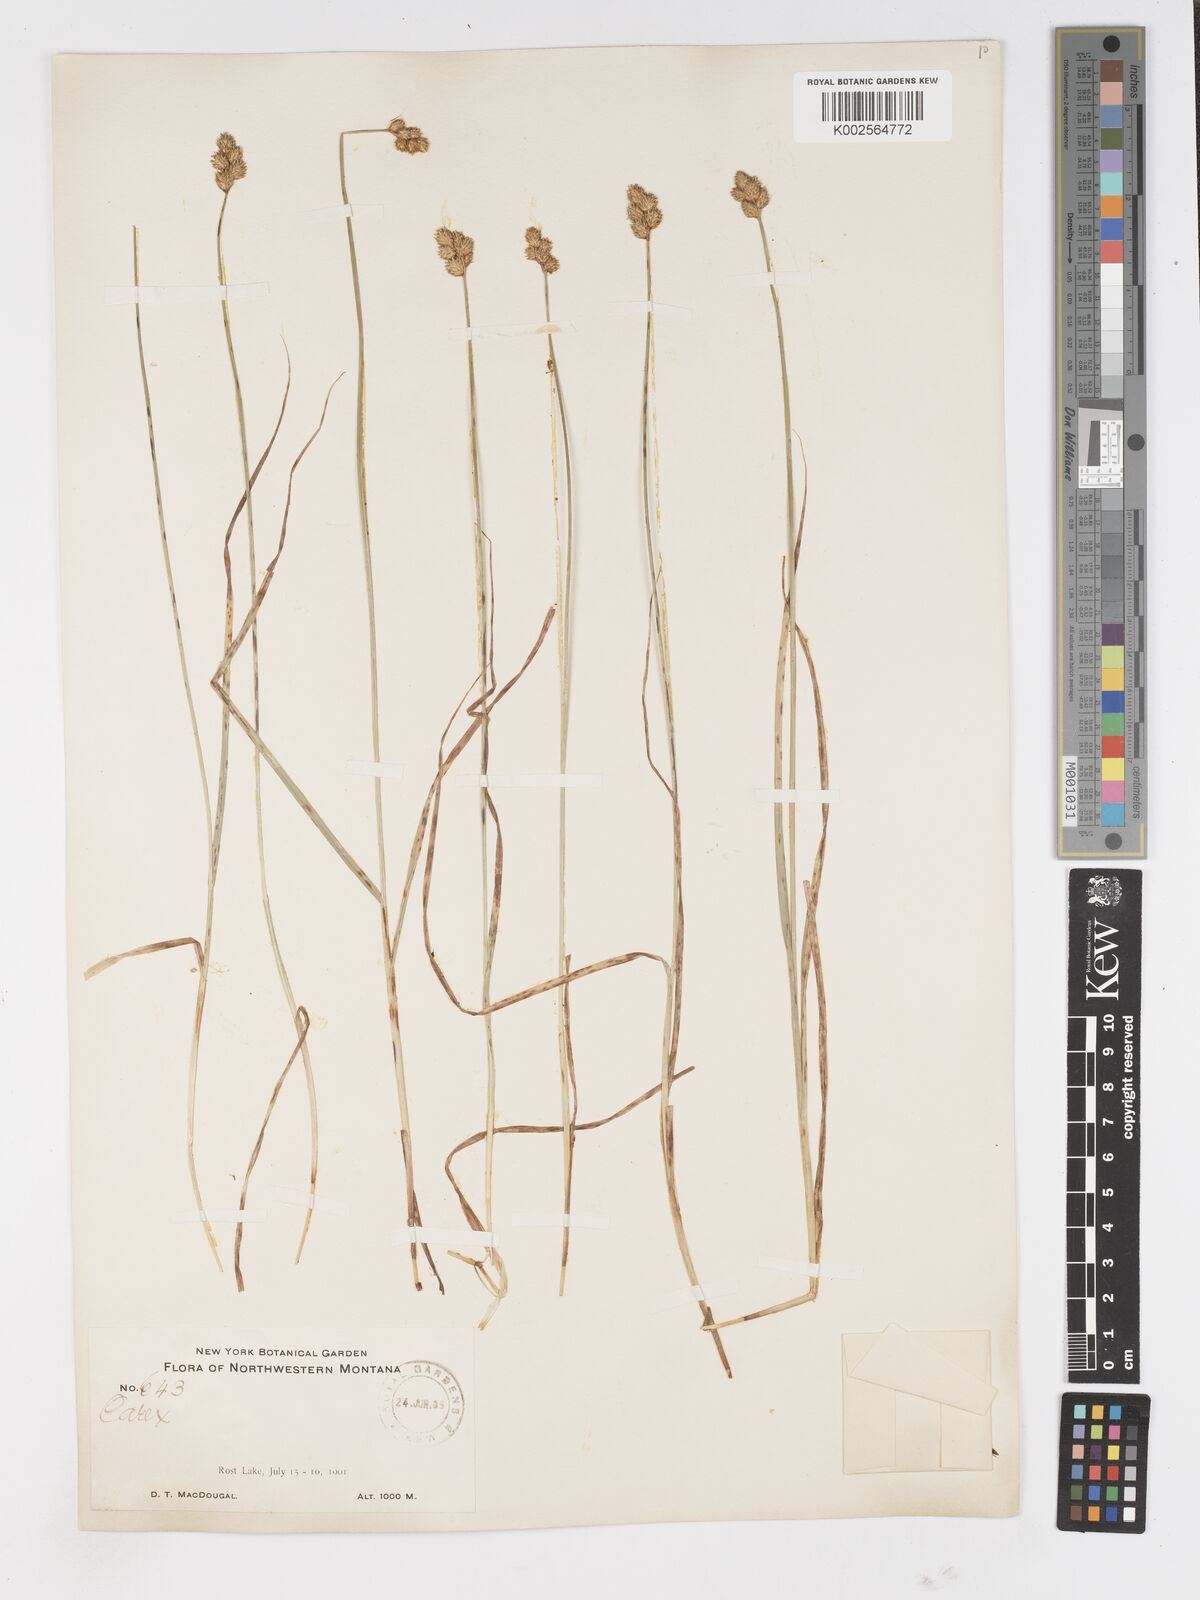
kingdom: Plantae
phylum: Tracheophyta
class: Liliopsida
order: Poales
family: Cyperaceae
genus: Carex
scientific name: Carex
